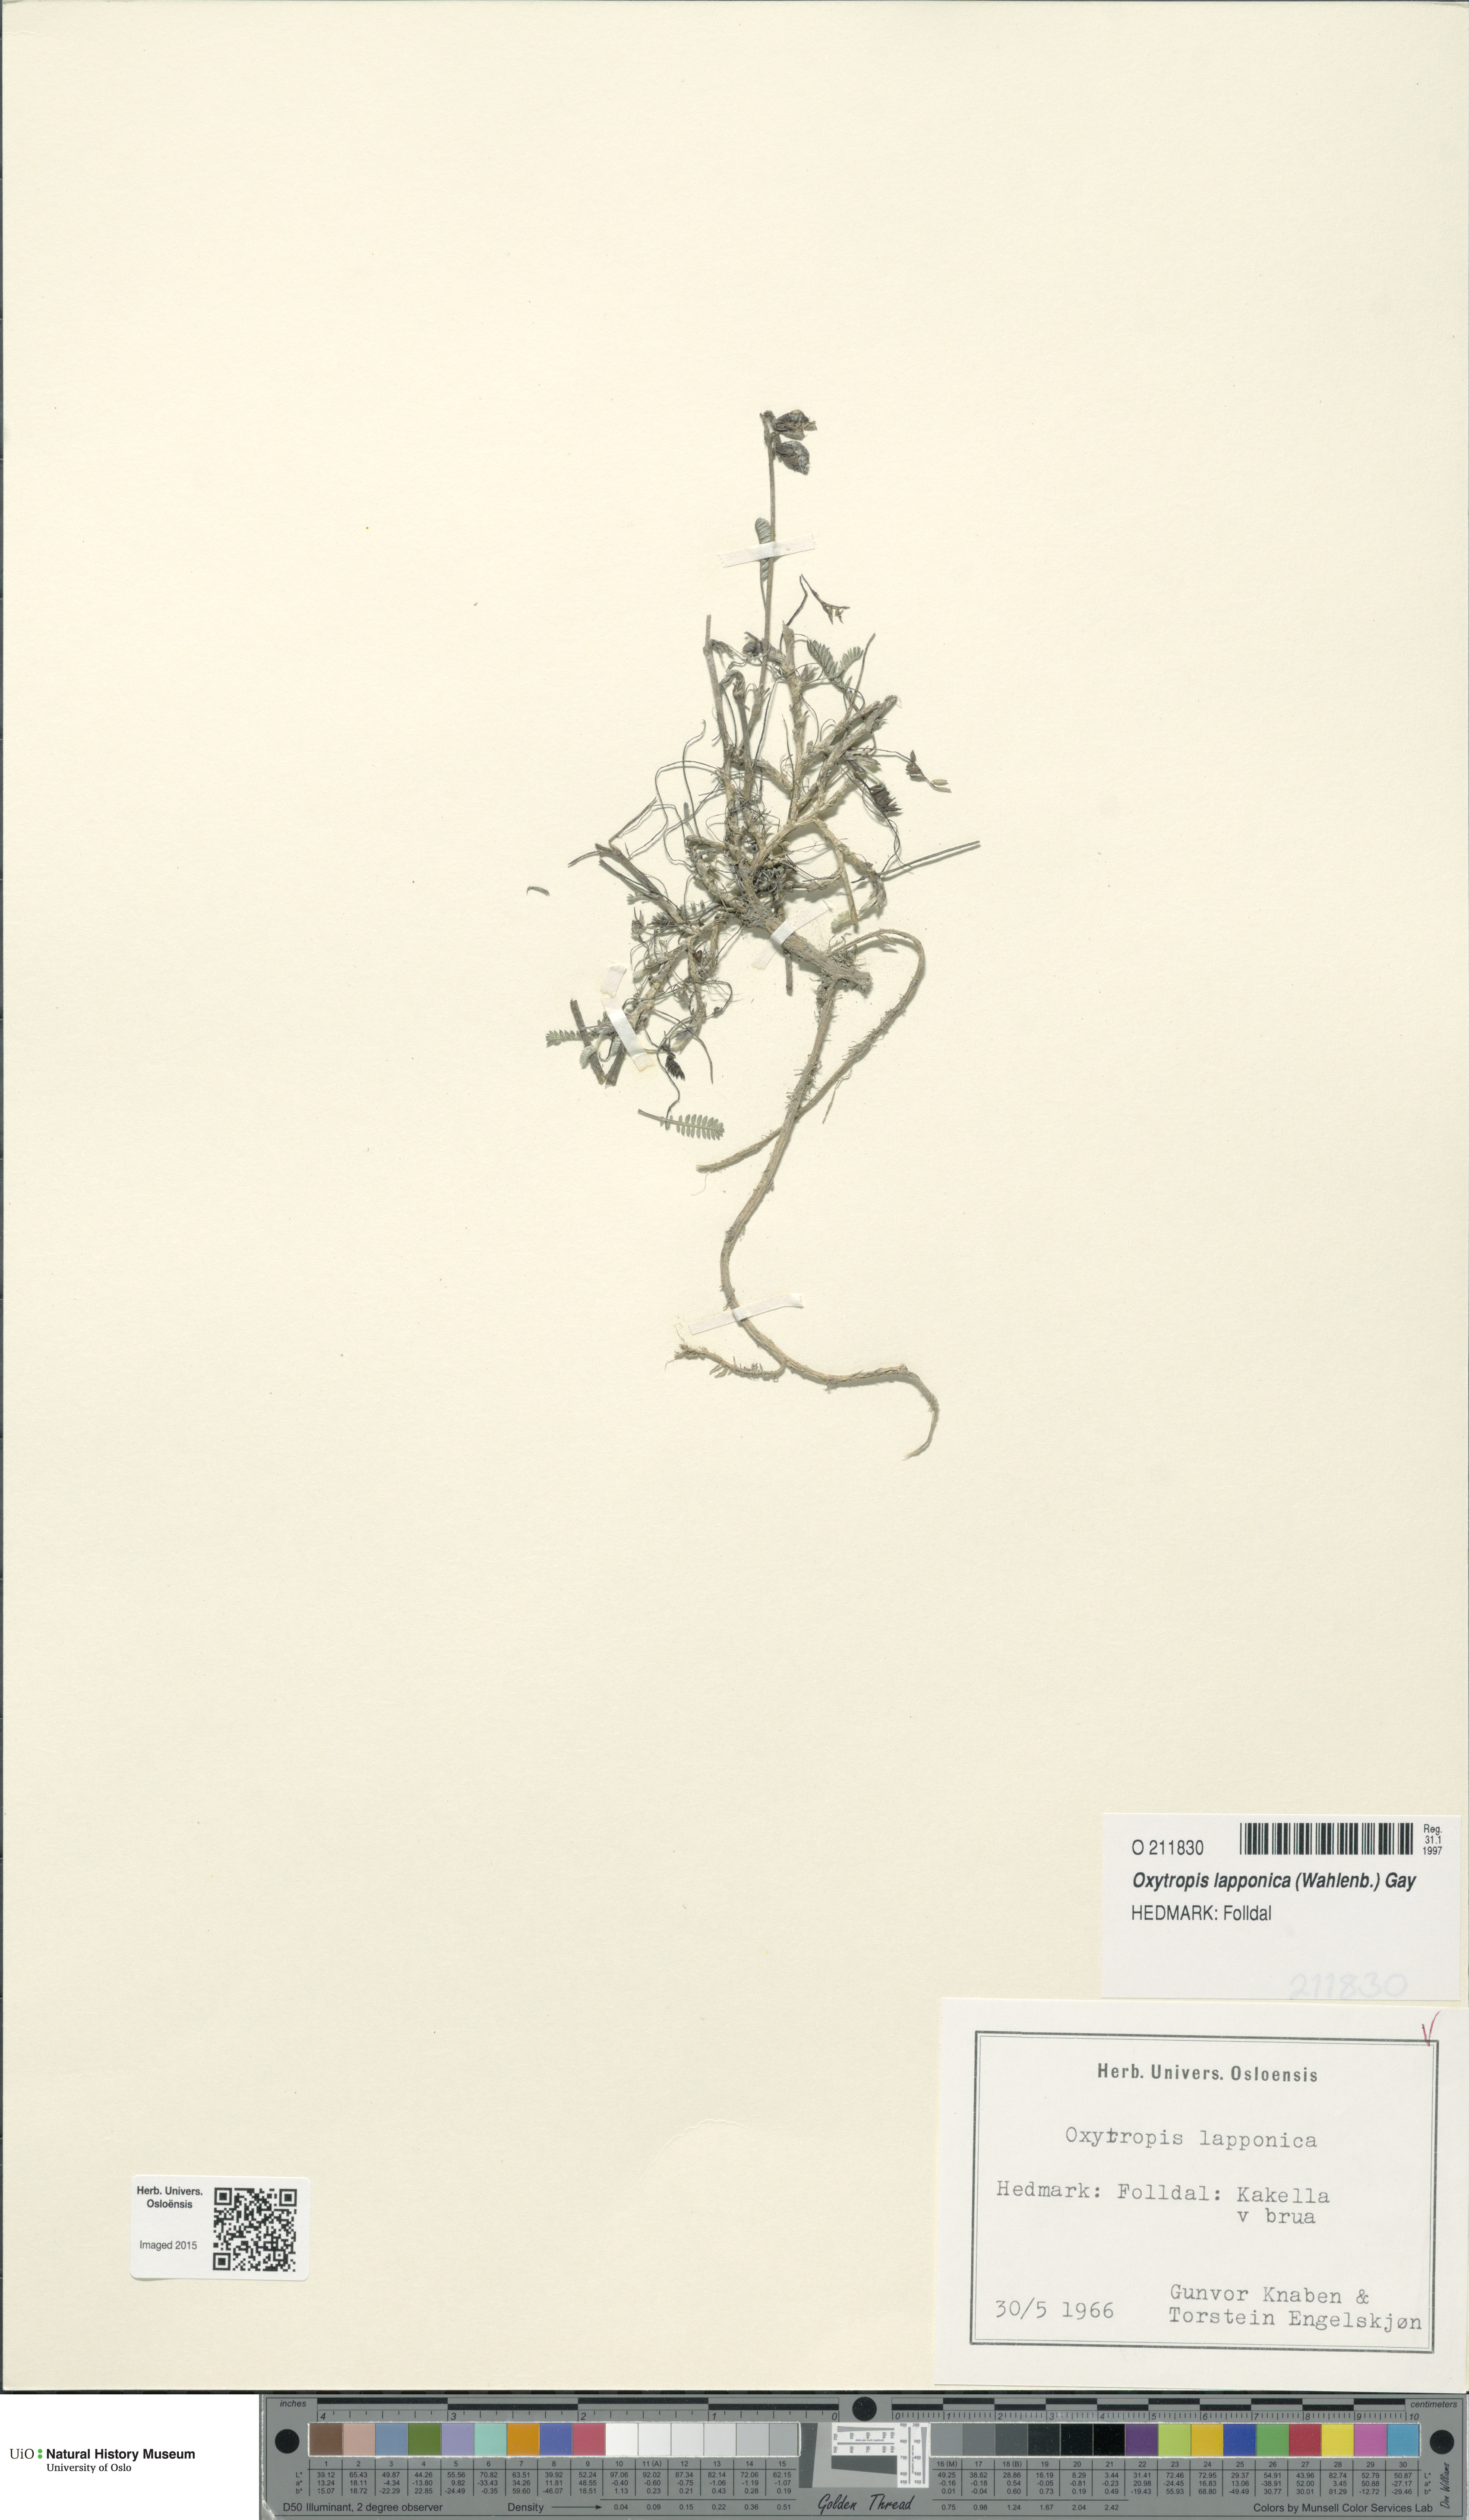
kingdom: Plantae
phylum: Tracheophyta
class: Magnoliopsida
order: Fabales
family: Fabaceae
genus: Oxytropis
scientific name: Oxytropis lapponica
